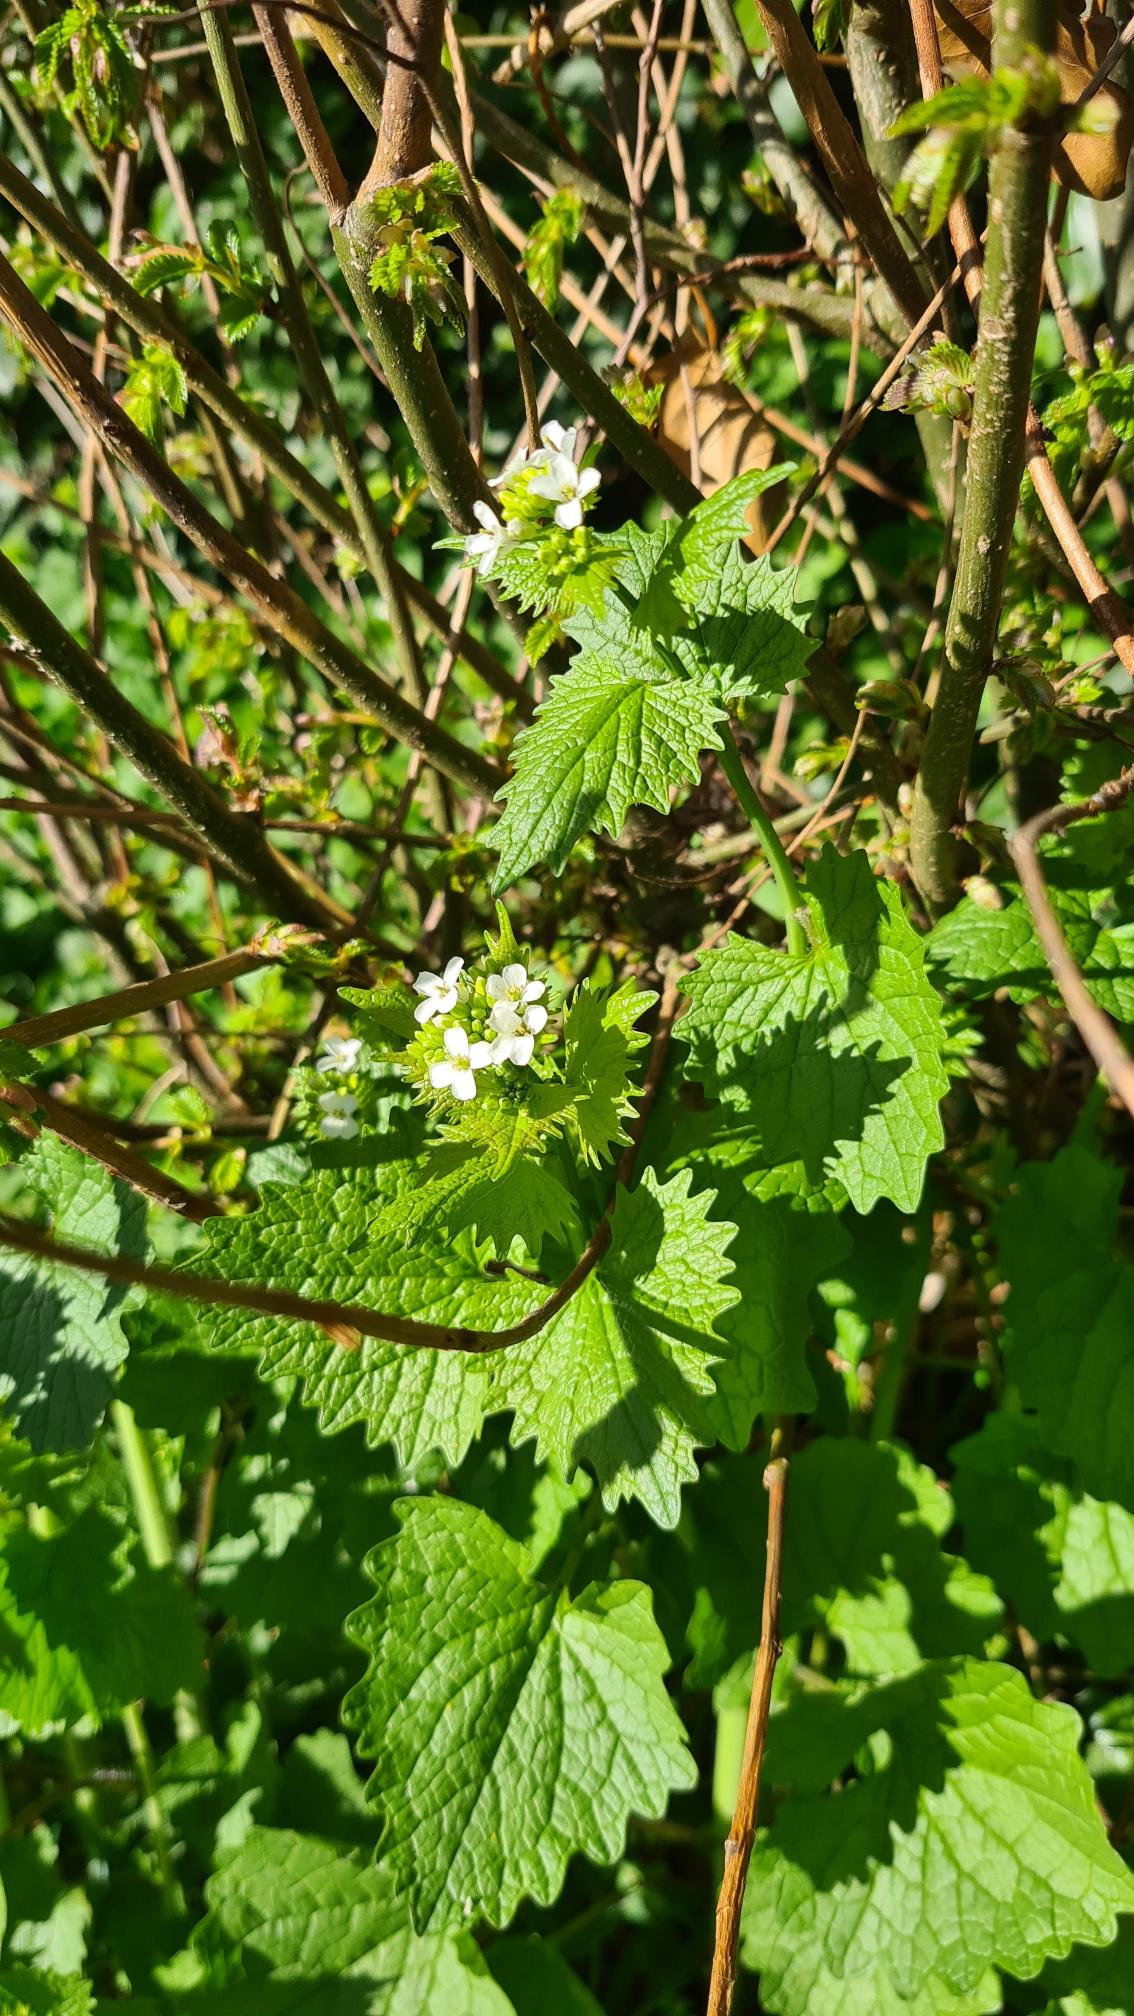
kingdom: Plantae
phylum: Tracheophyta
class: Magnoliopsida
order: Brassicales
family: Brassicaceae
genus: Alliaria
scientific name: Alliaria petiolata
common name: Løgkarse
